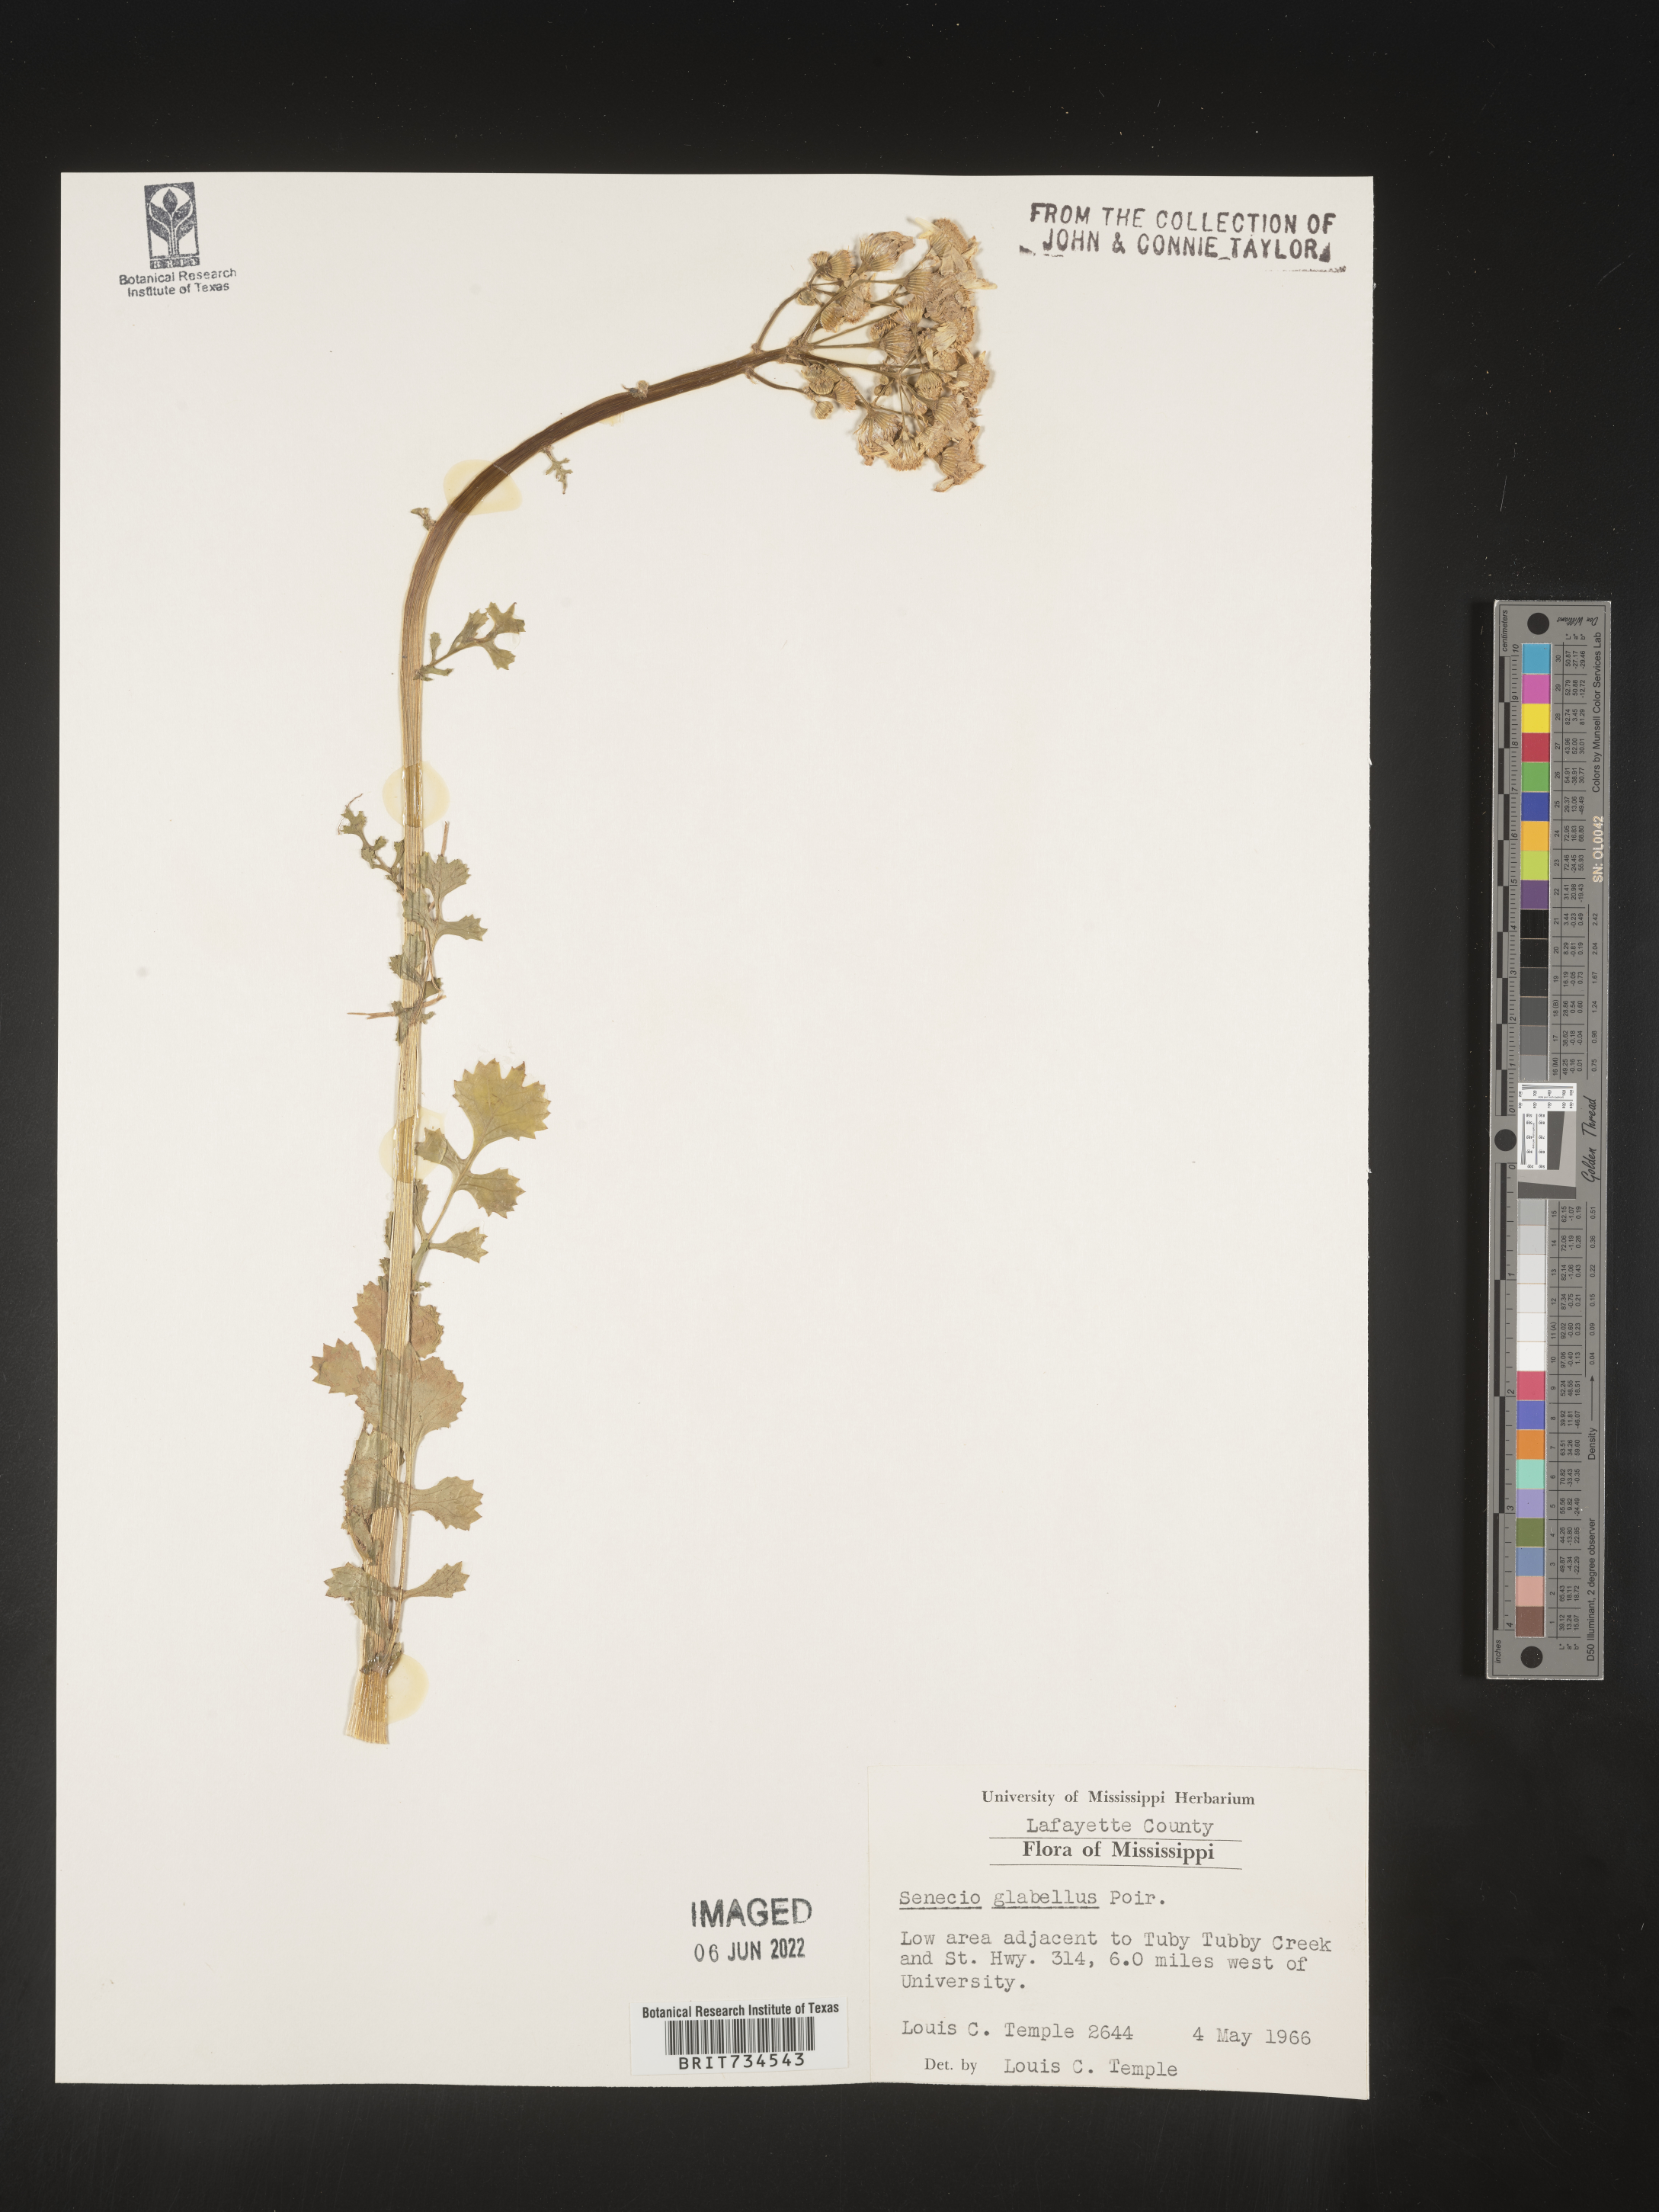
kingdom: Plantae
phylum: Tracheophyta
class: Magnoliopsida
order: Asterales
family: Asteraceae
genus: Packera
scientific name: Packera glabella
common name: Butterweed
